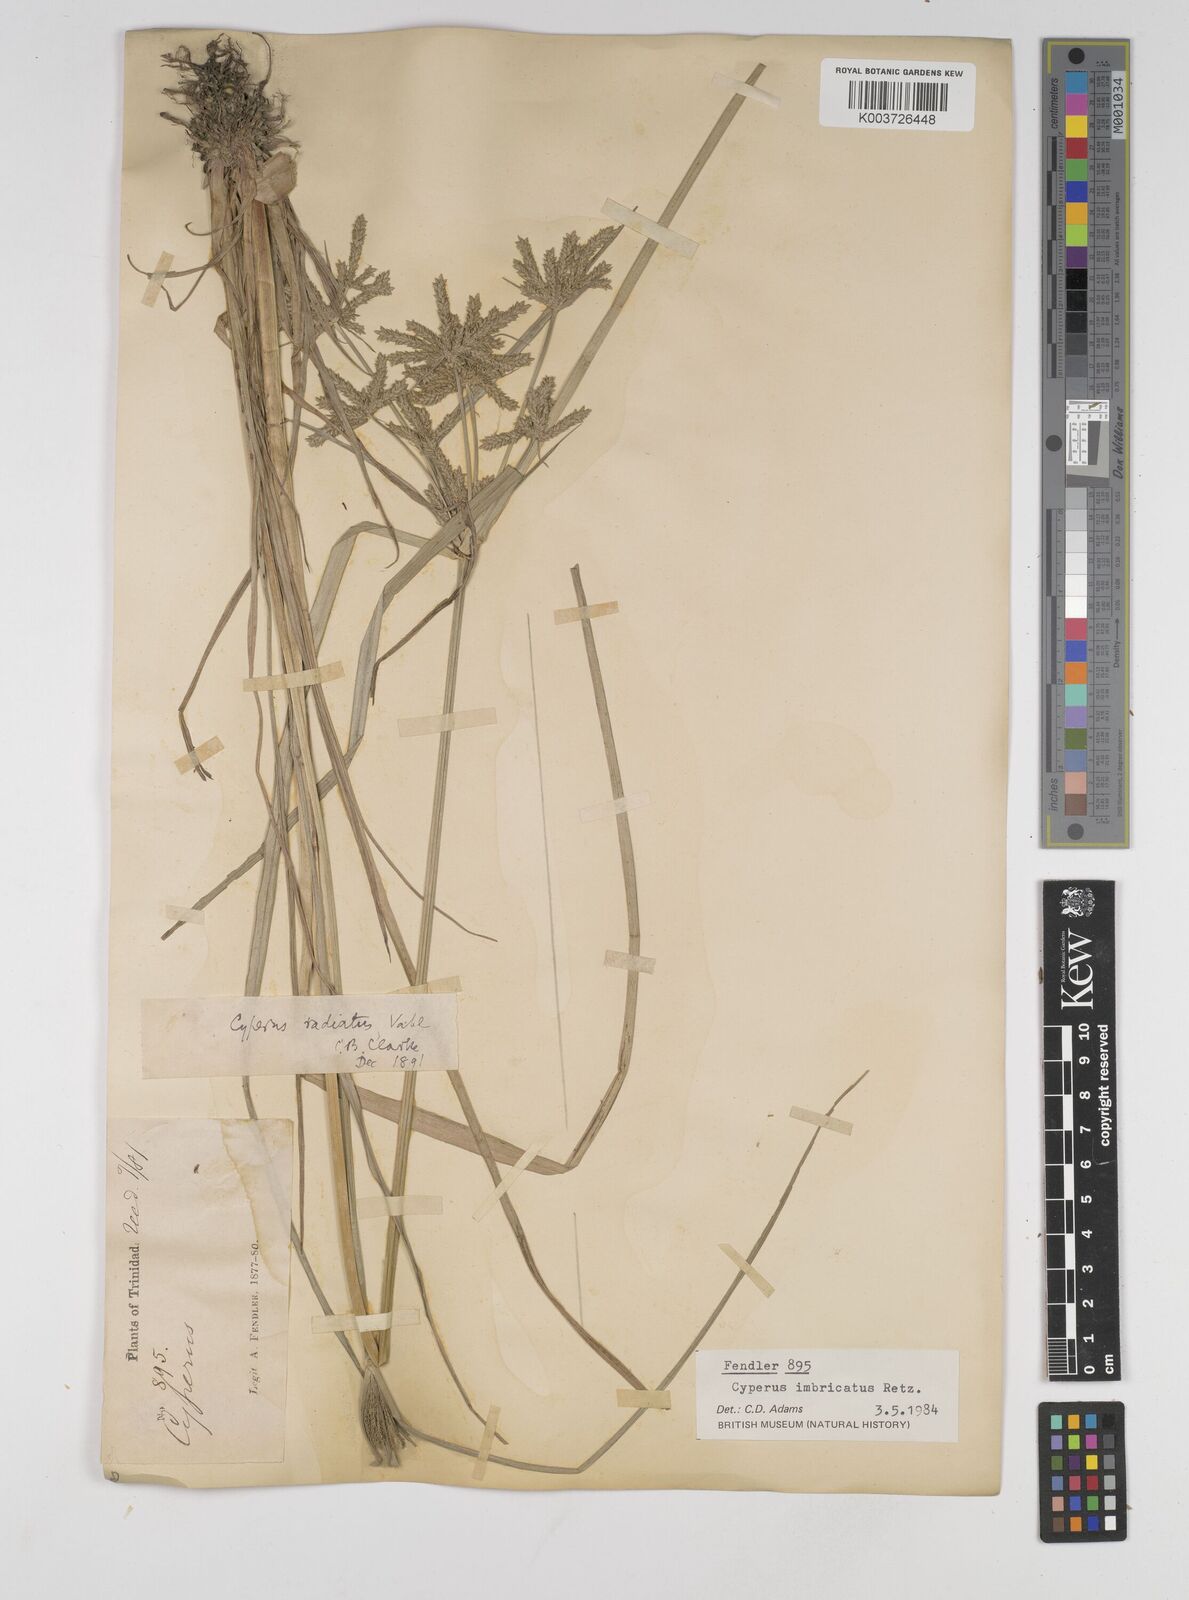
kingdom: Plantae
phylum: Tracheophyta
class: Liliopsida
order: Poales
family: Cyperaceae
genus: Cyperus
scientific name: Cyperus imbricatus
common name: Shingle flatsedge
